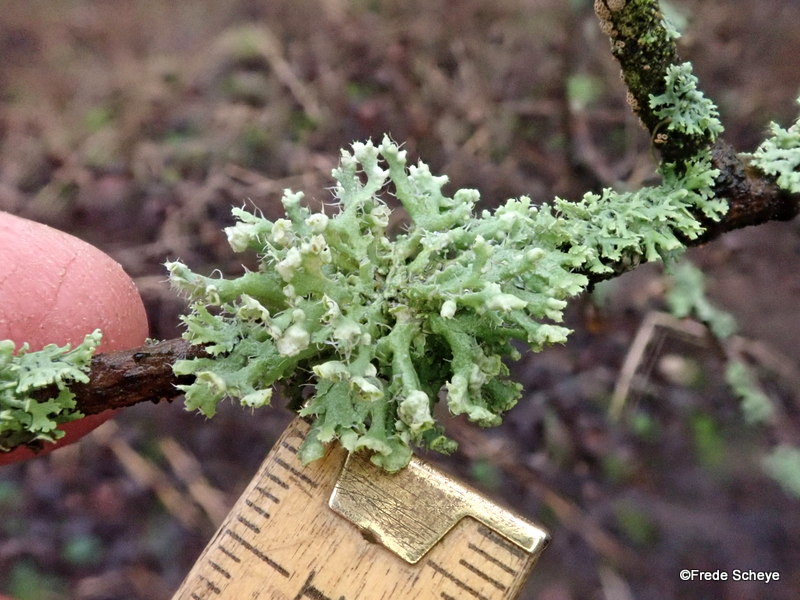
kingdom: Fungi
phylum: Ascomycota
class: Lecanoromycetes
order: Caliciales
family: Physciaceae
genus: Physcia
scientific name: Physcia adscendens
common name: hætte-rosetlav
